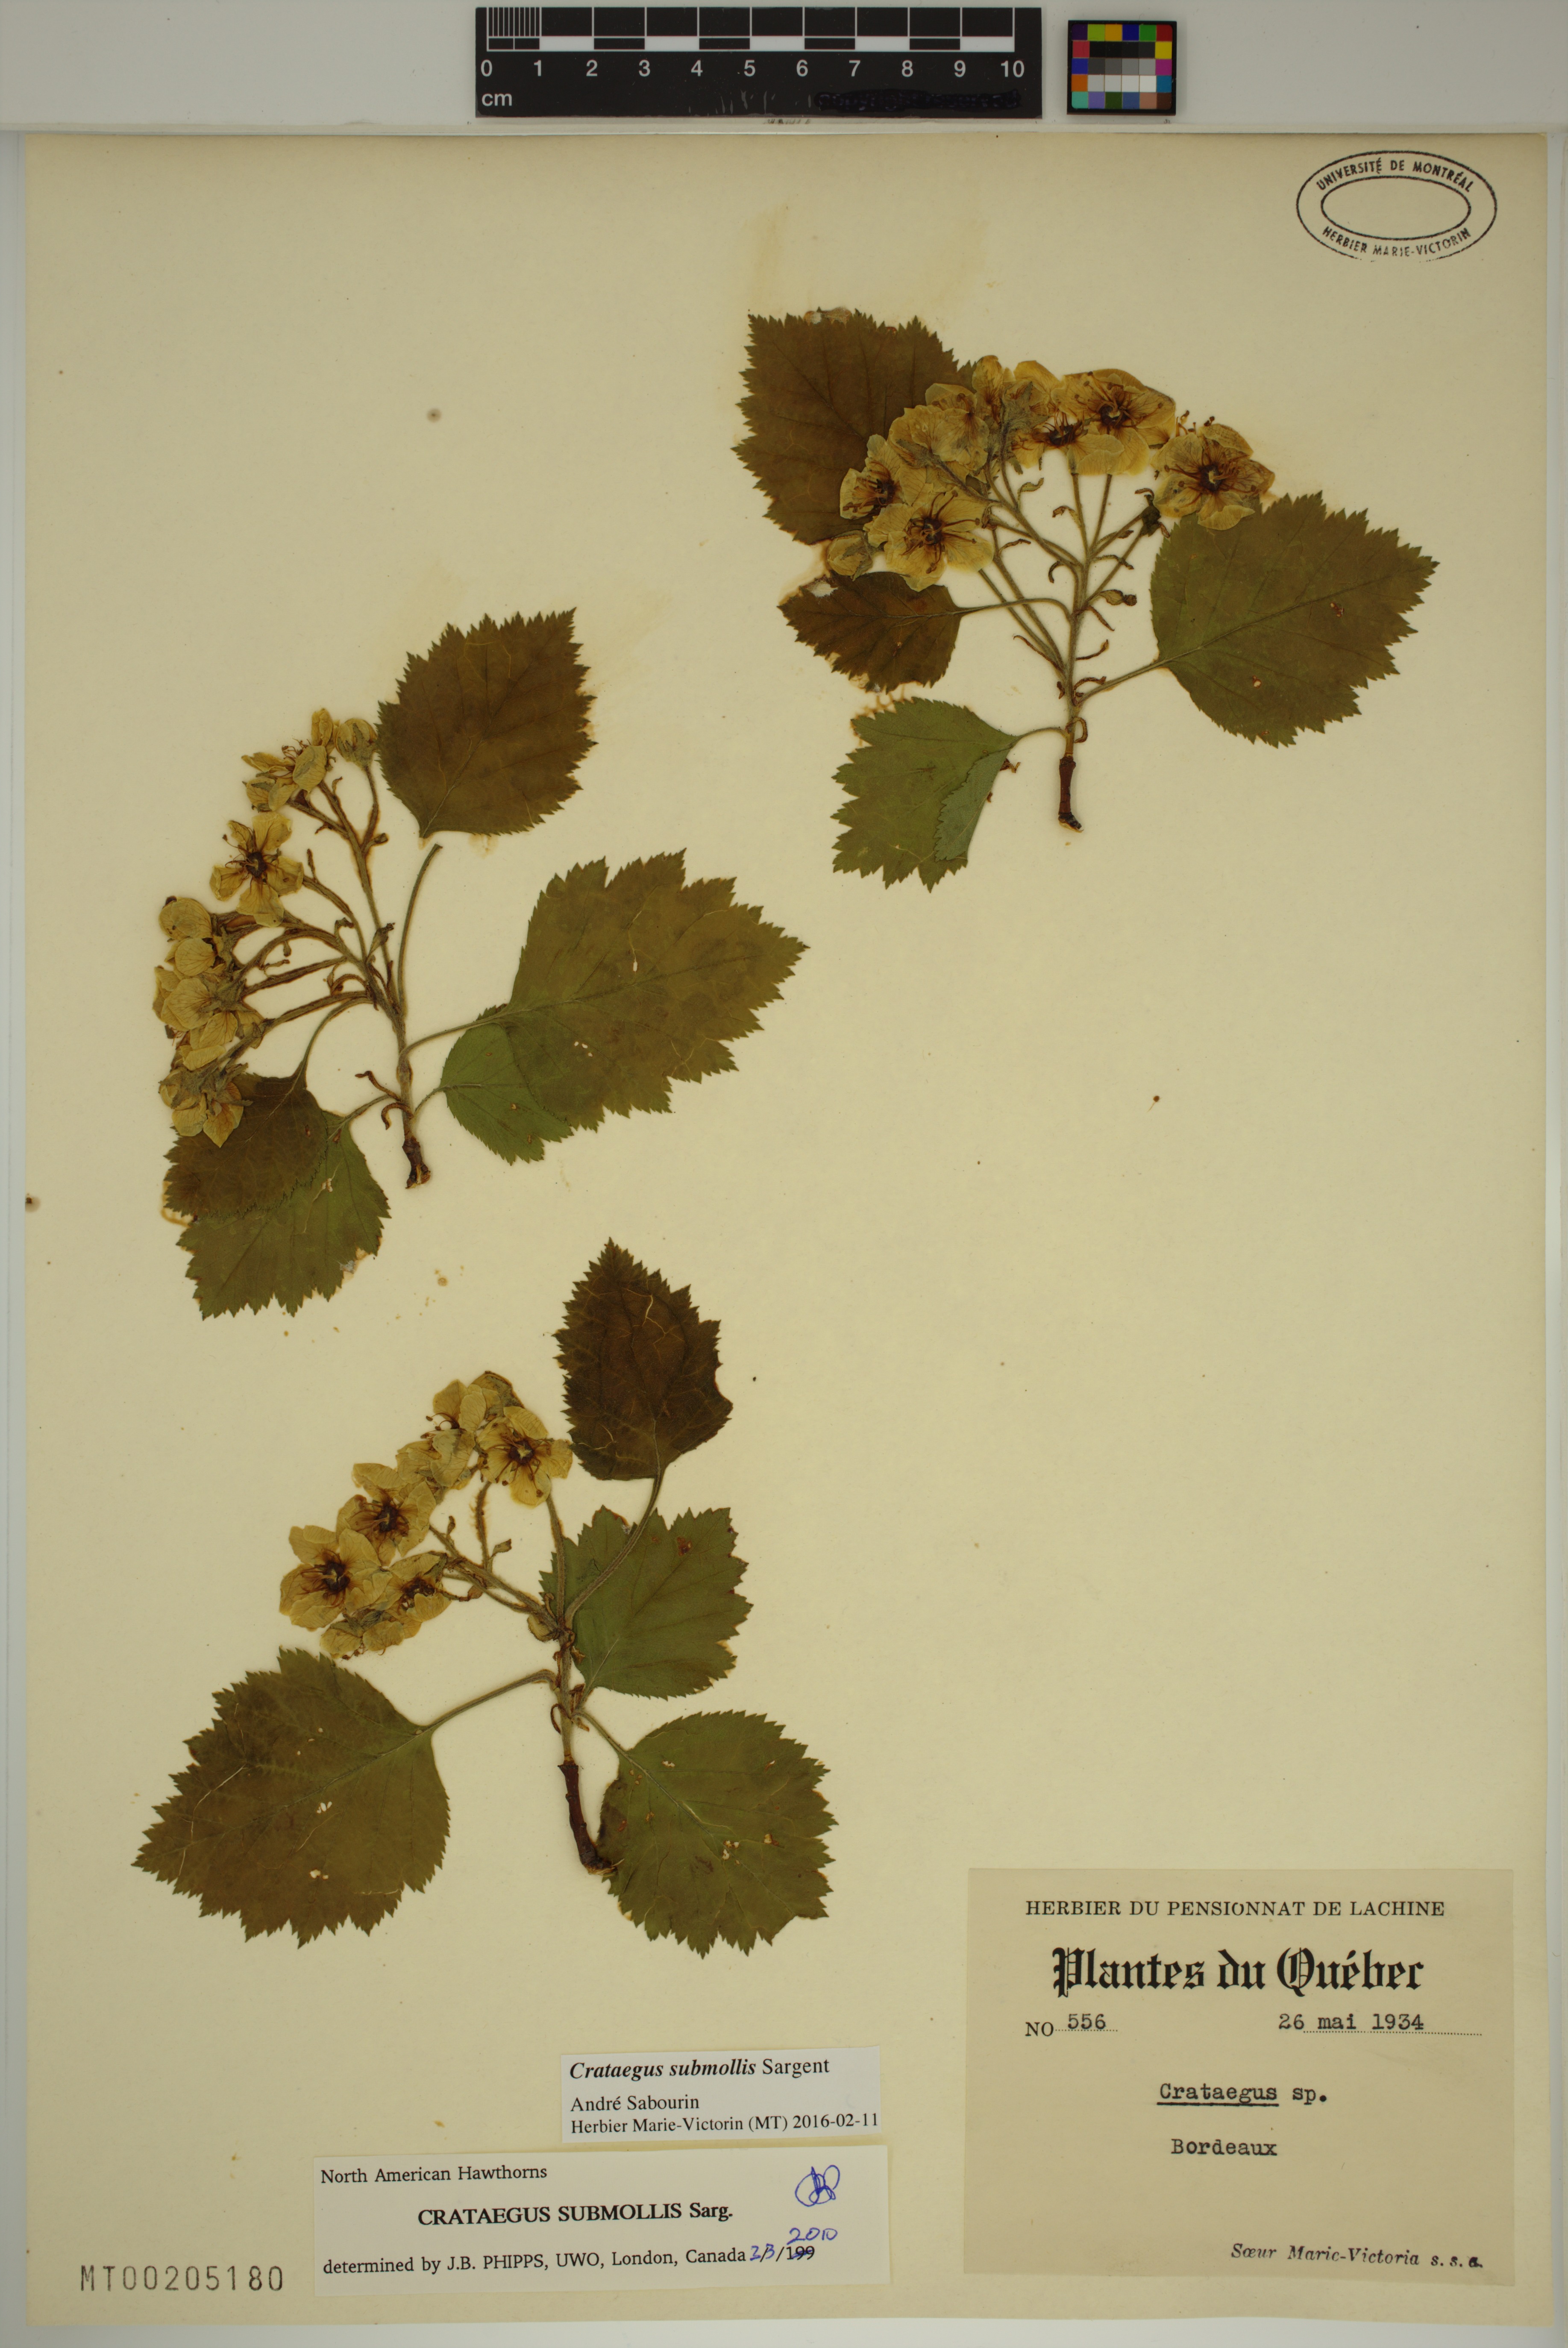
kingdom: Plantae
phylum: Tracheophyta
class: Magnoliopsida
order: Rosales
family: Rosaceae
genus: Crataegus
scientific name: Crataegus submollis
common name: Hairy cockspurthorn
